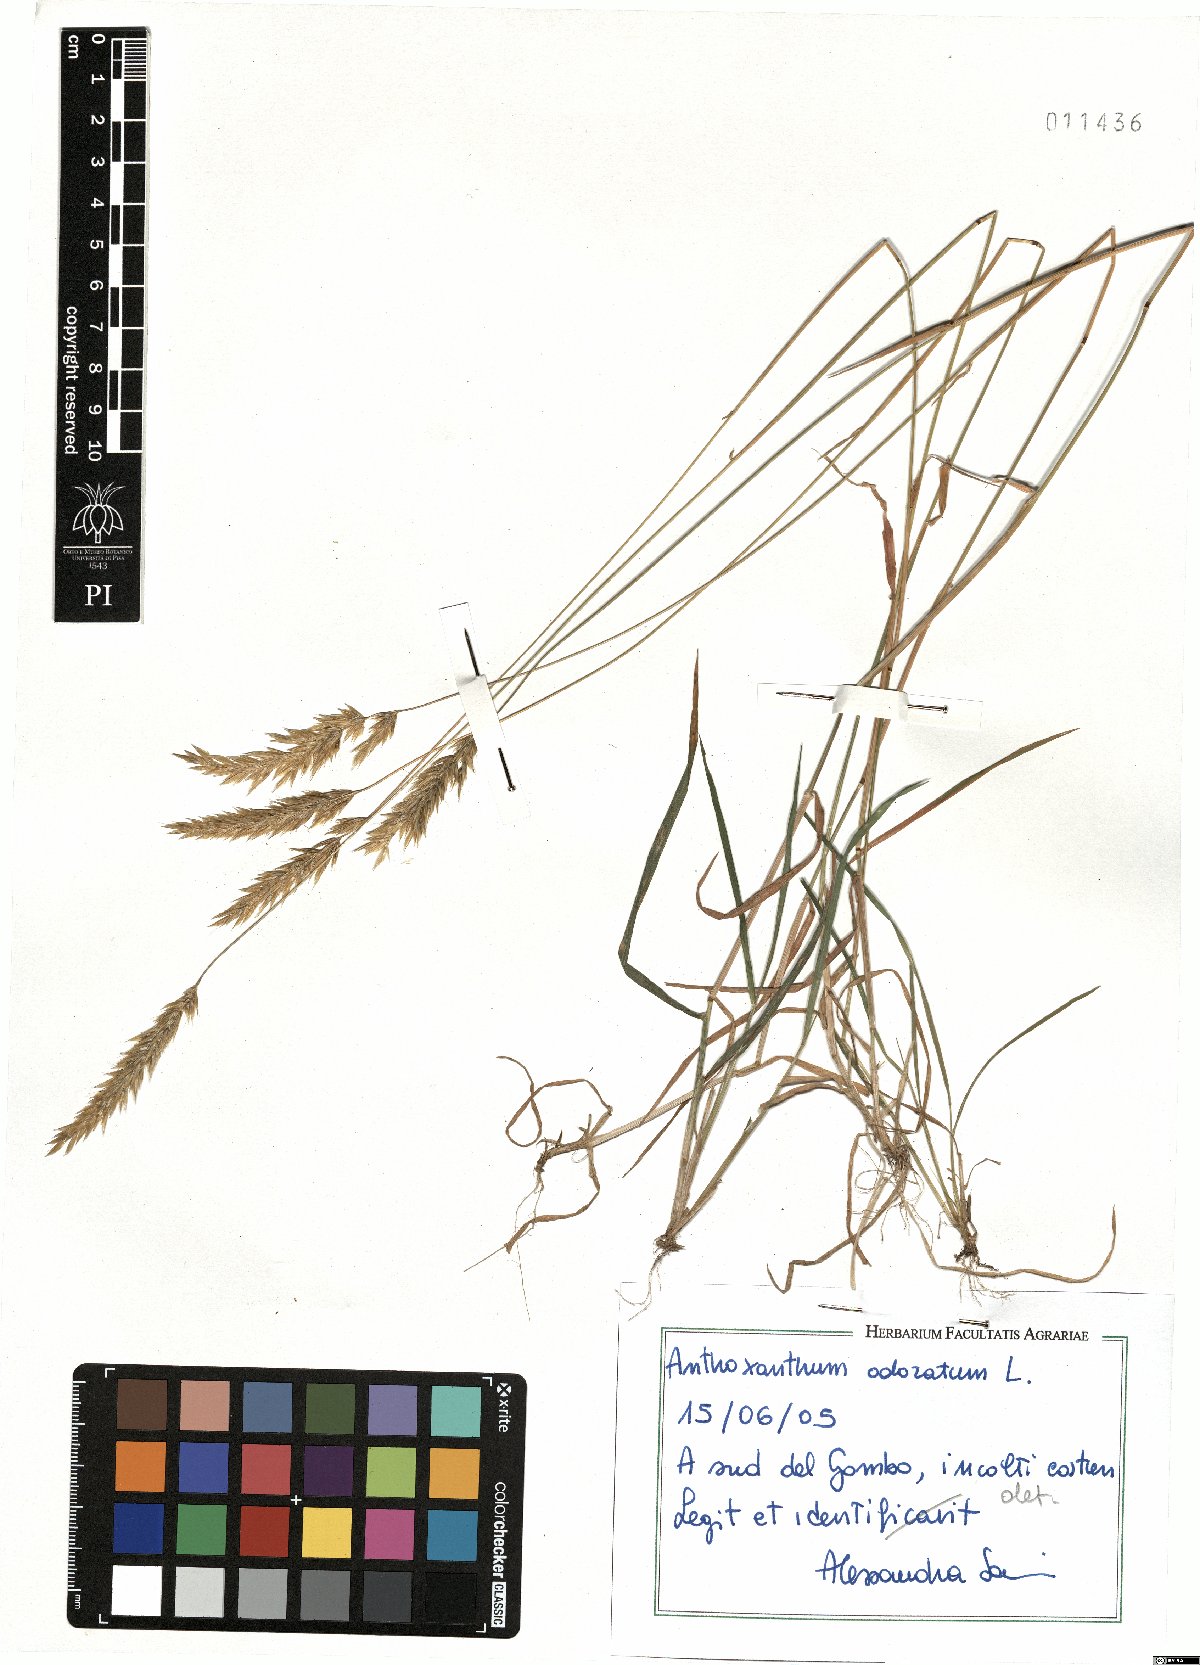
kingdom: Plantae
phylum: Tracheophyta
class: Liliopsida
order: Poales
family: Poaceae
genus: Anthoxanthum
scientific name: Anthoxanthum odoratum
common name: Sweet vernalgrass
